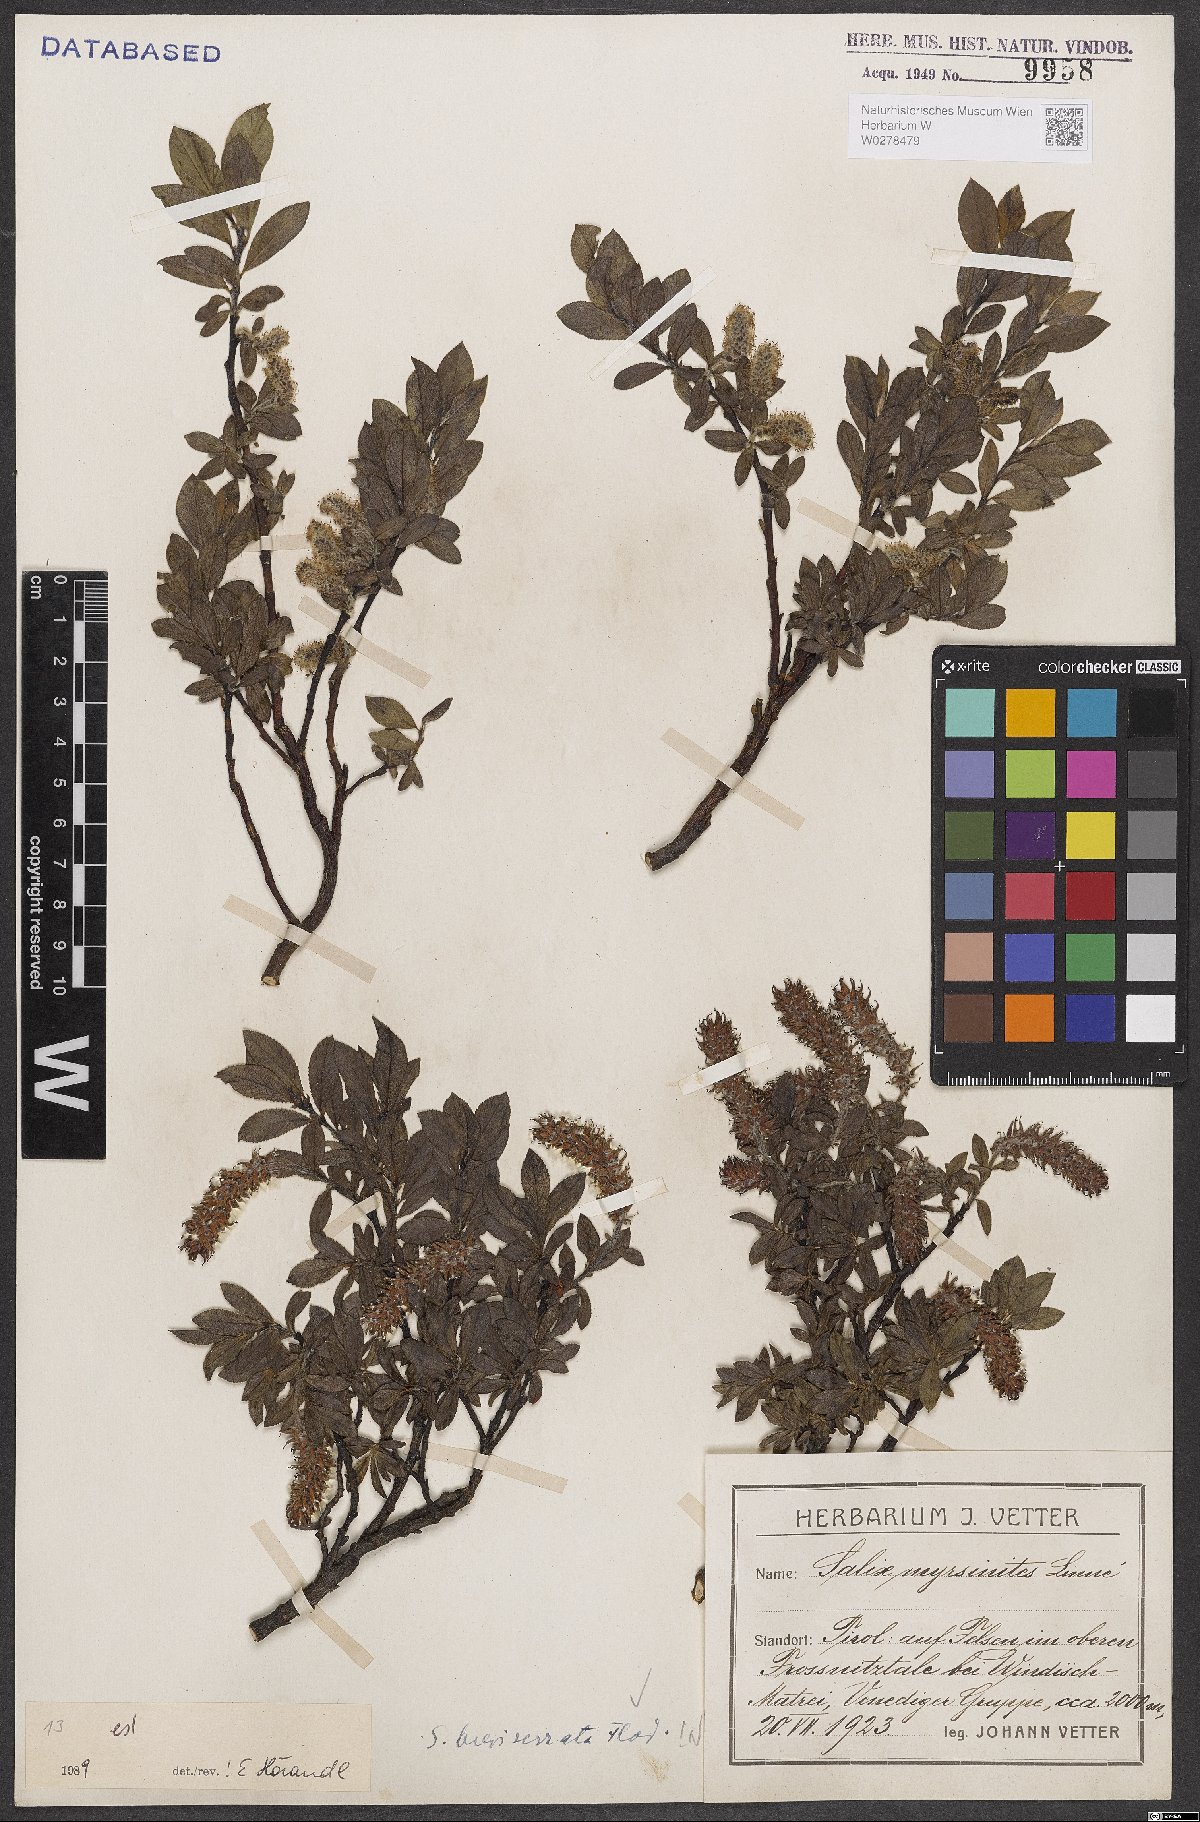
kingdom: Plantae
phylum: Tracheophyta
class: Magnoliopsida
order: Malpighiales
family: Salicaceae
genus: Salix
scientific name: Salix breviserrata
